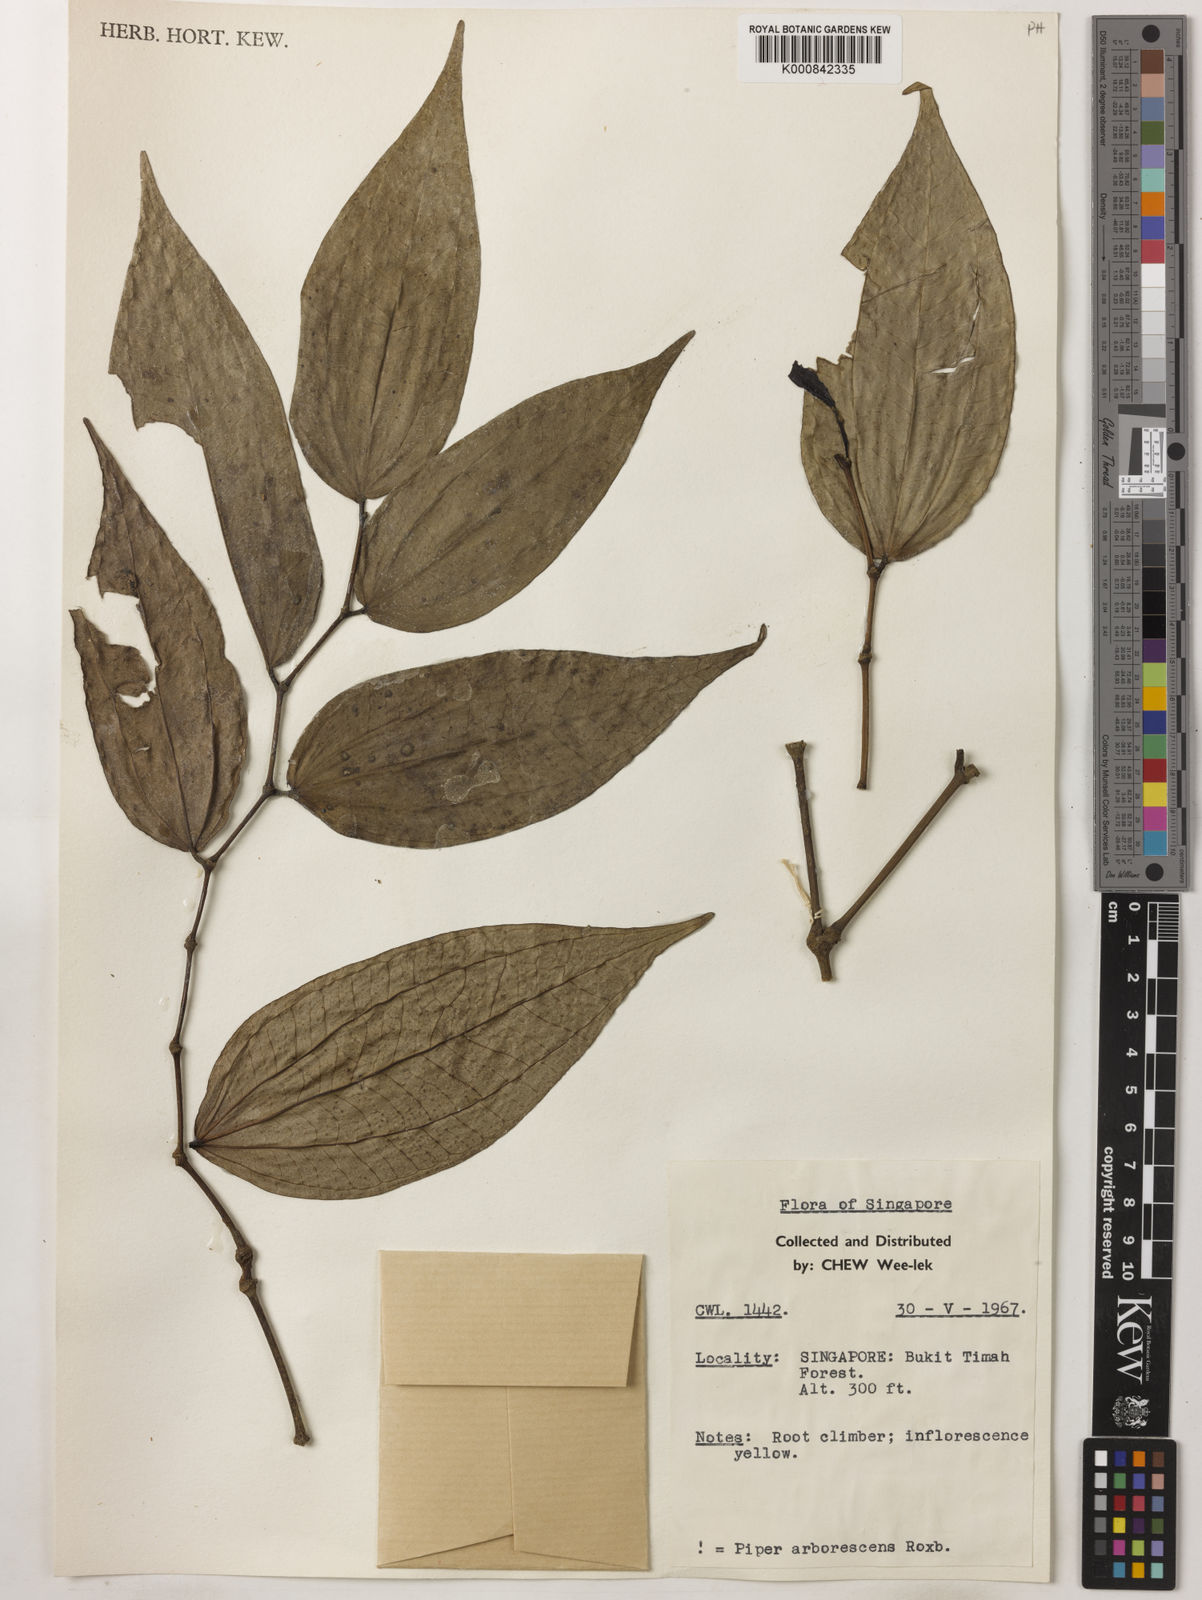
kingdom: Plantae
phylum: Tracheophyta
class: Magnoliopsida
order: Piperales
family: Piperaceae
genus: Piper
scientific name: Piper macropiper
